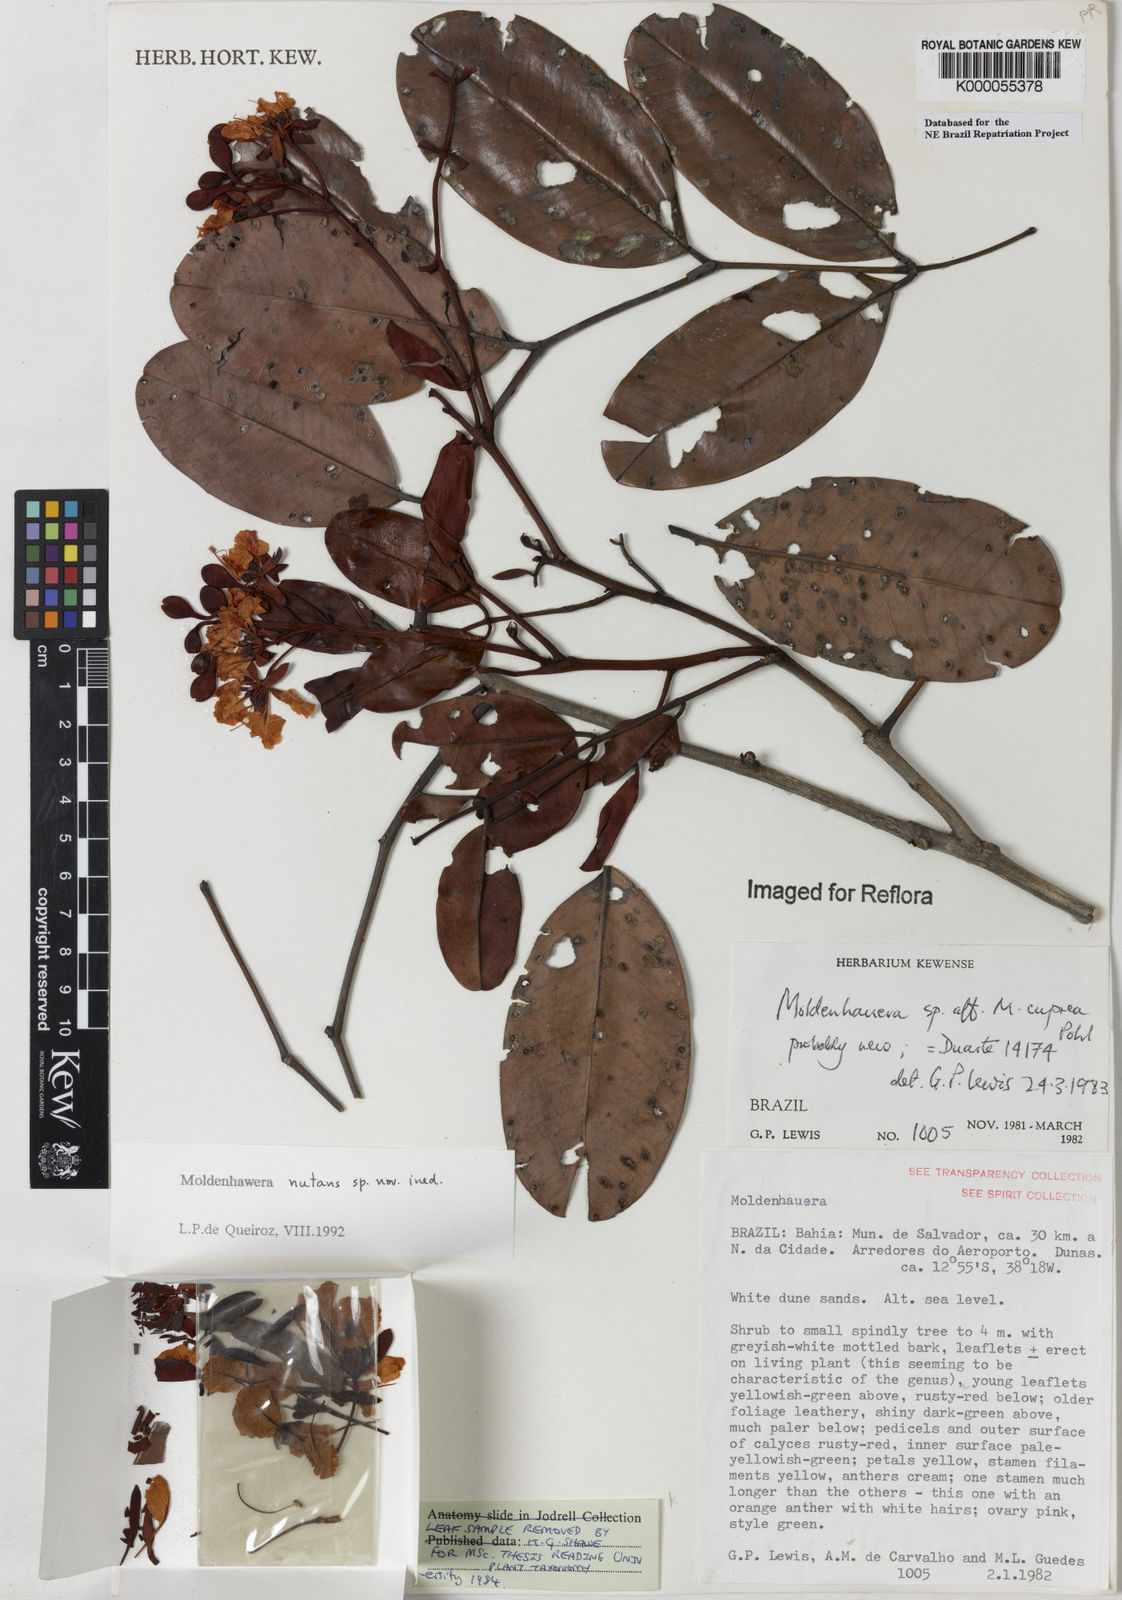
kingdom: Plantae
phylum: Tracheophyta
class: Magnoliopsida
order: Fabales
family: Fabaceae
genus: Moldenhawera
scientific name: Moldenhawera nutans
